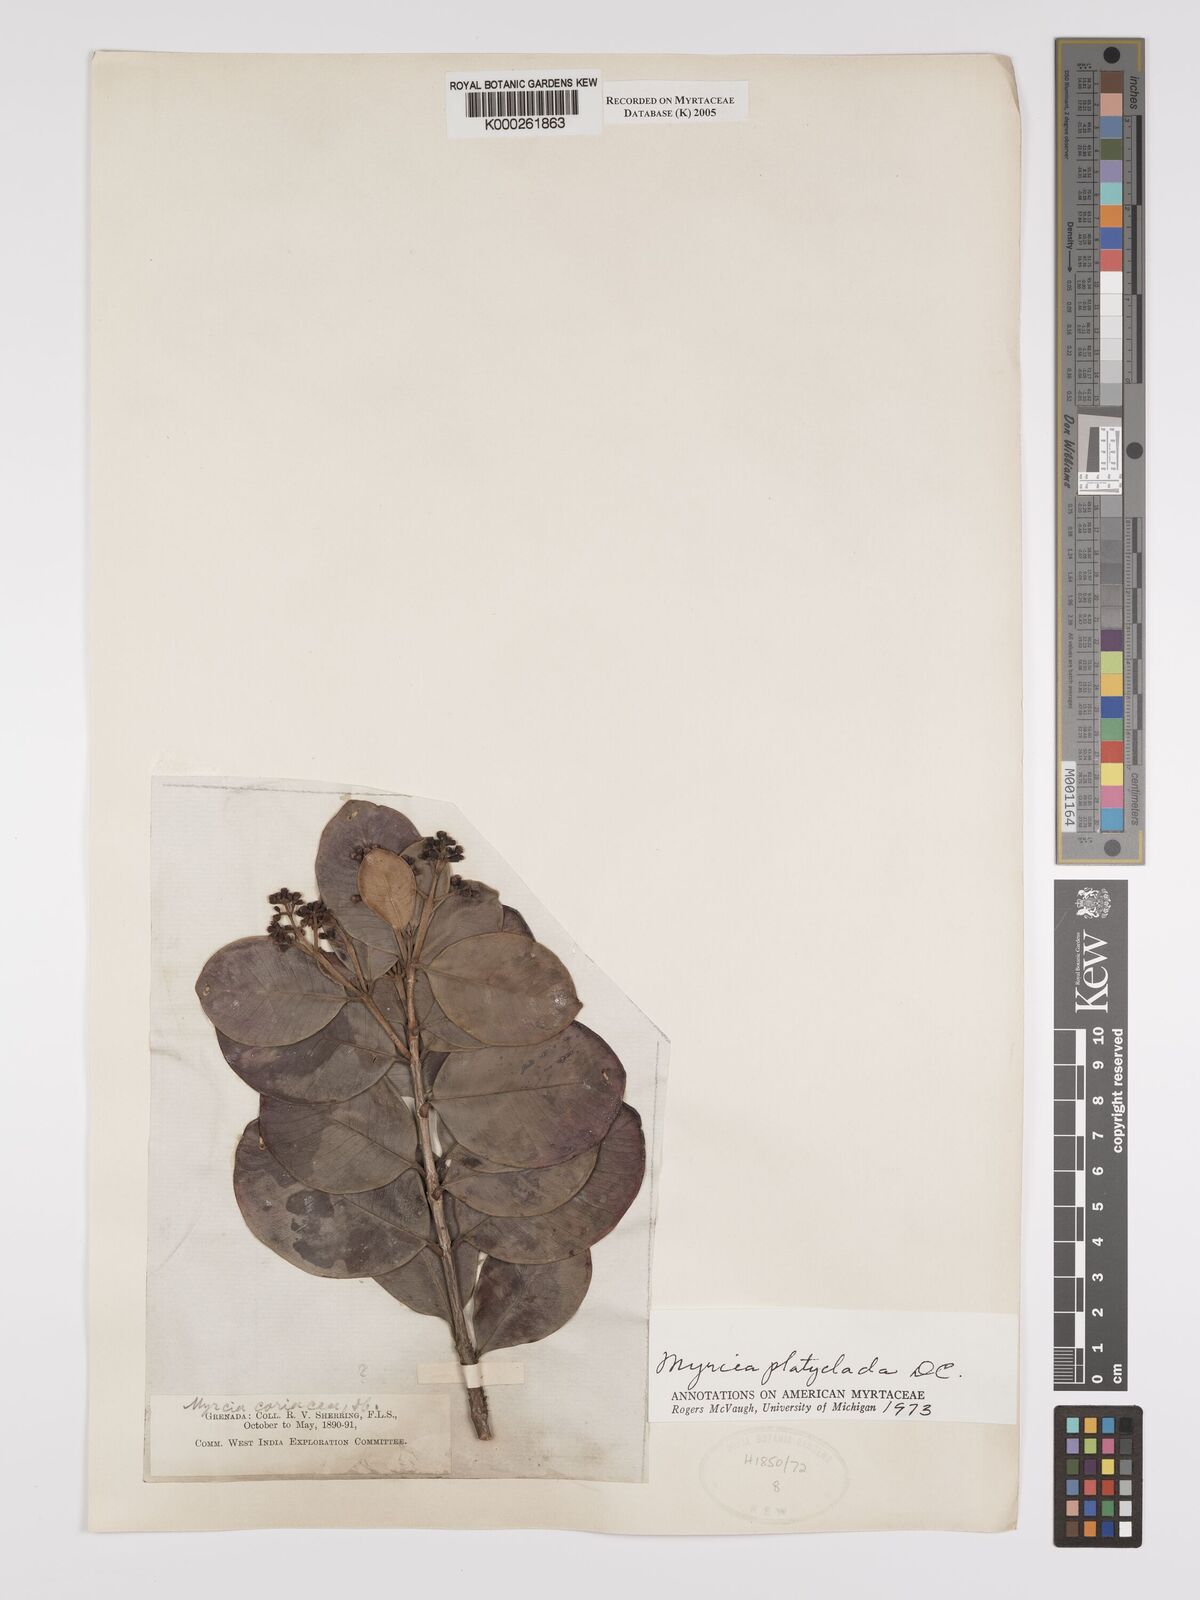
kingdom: Plantae
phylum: Tracheophyta
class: Magnoliopsida
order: Myrtales
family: Myrtaceae
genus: Myrcia
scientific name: Myrcia platyclada
